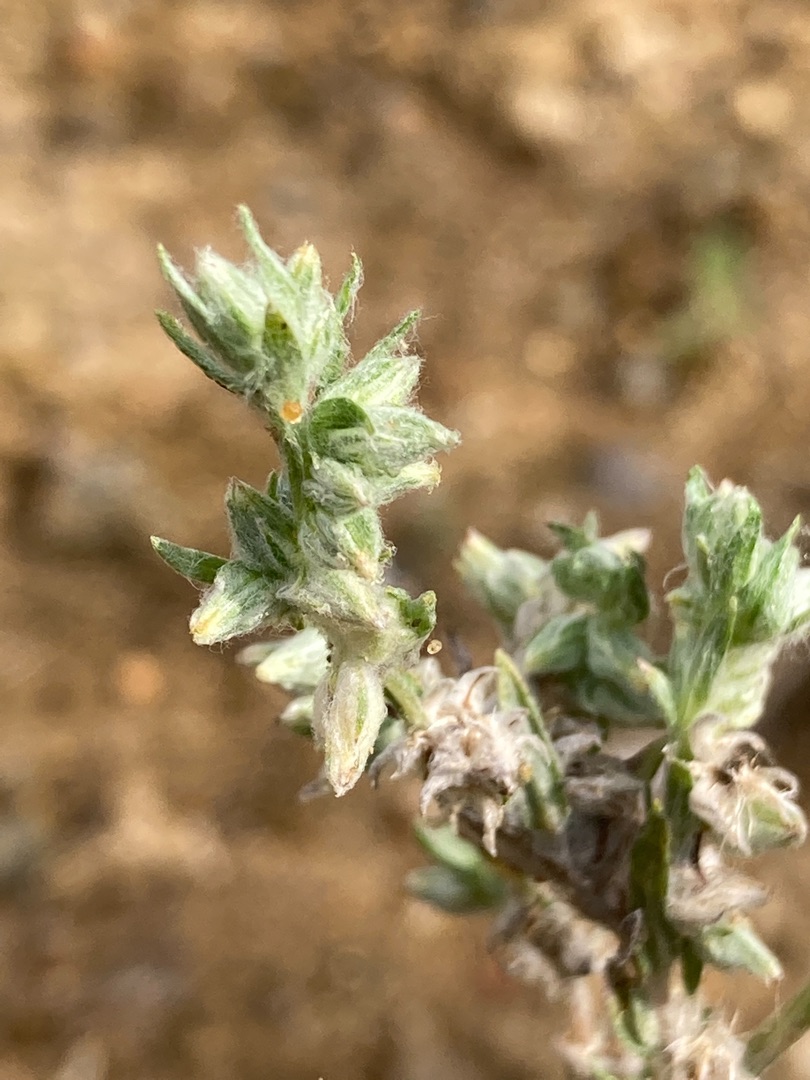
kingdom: Plantae
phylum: Tracheophyta
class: Magnoliopsida
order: Asterales
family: Asteraceae
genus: Filago
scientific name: Filago arvensis
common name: Ager-museurt
